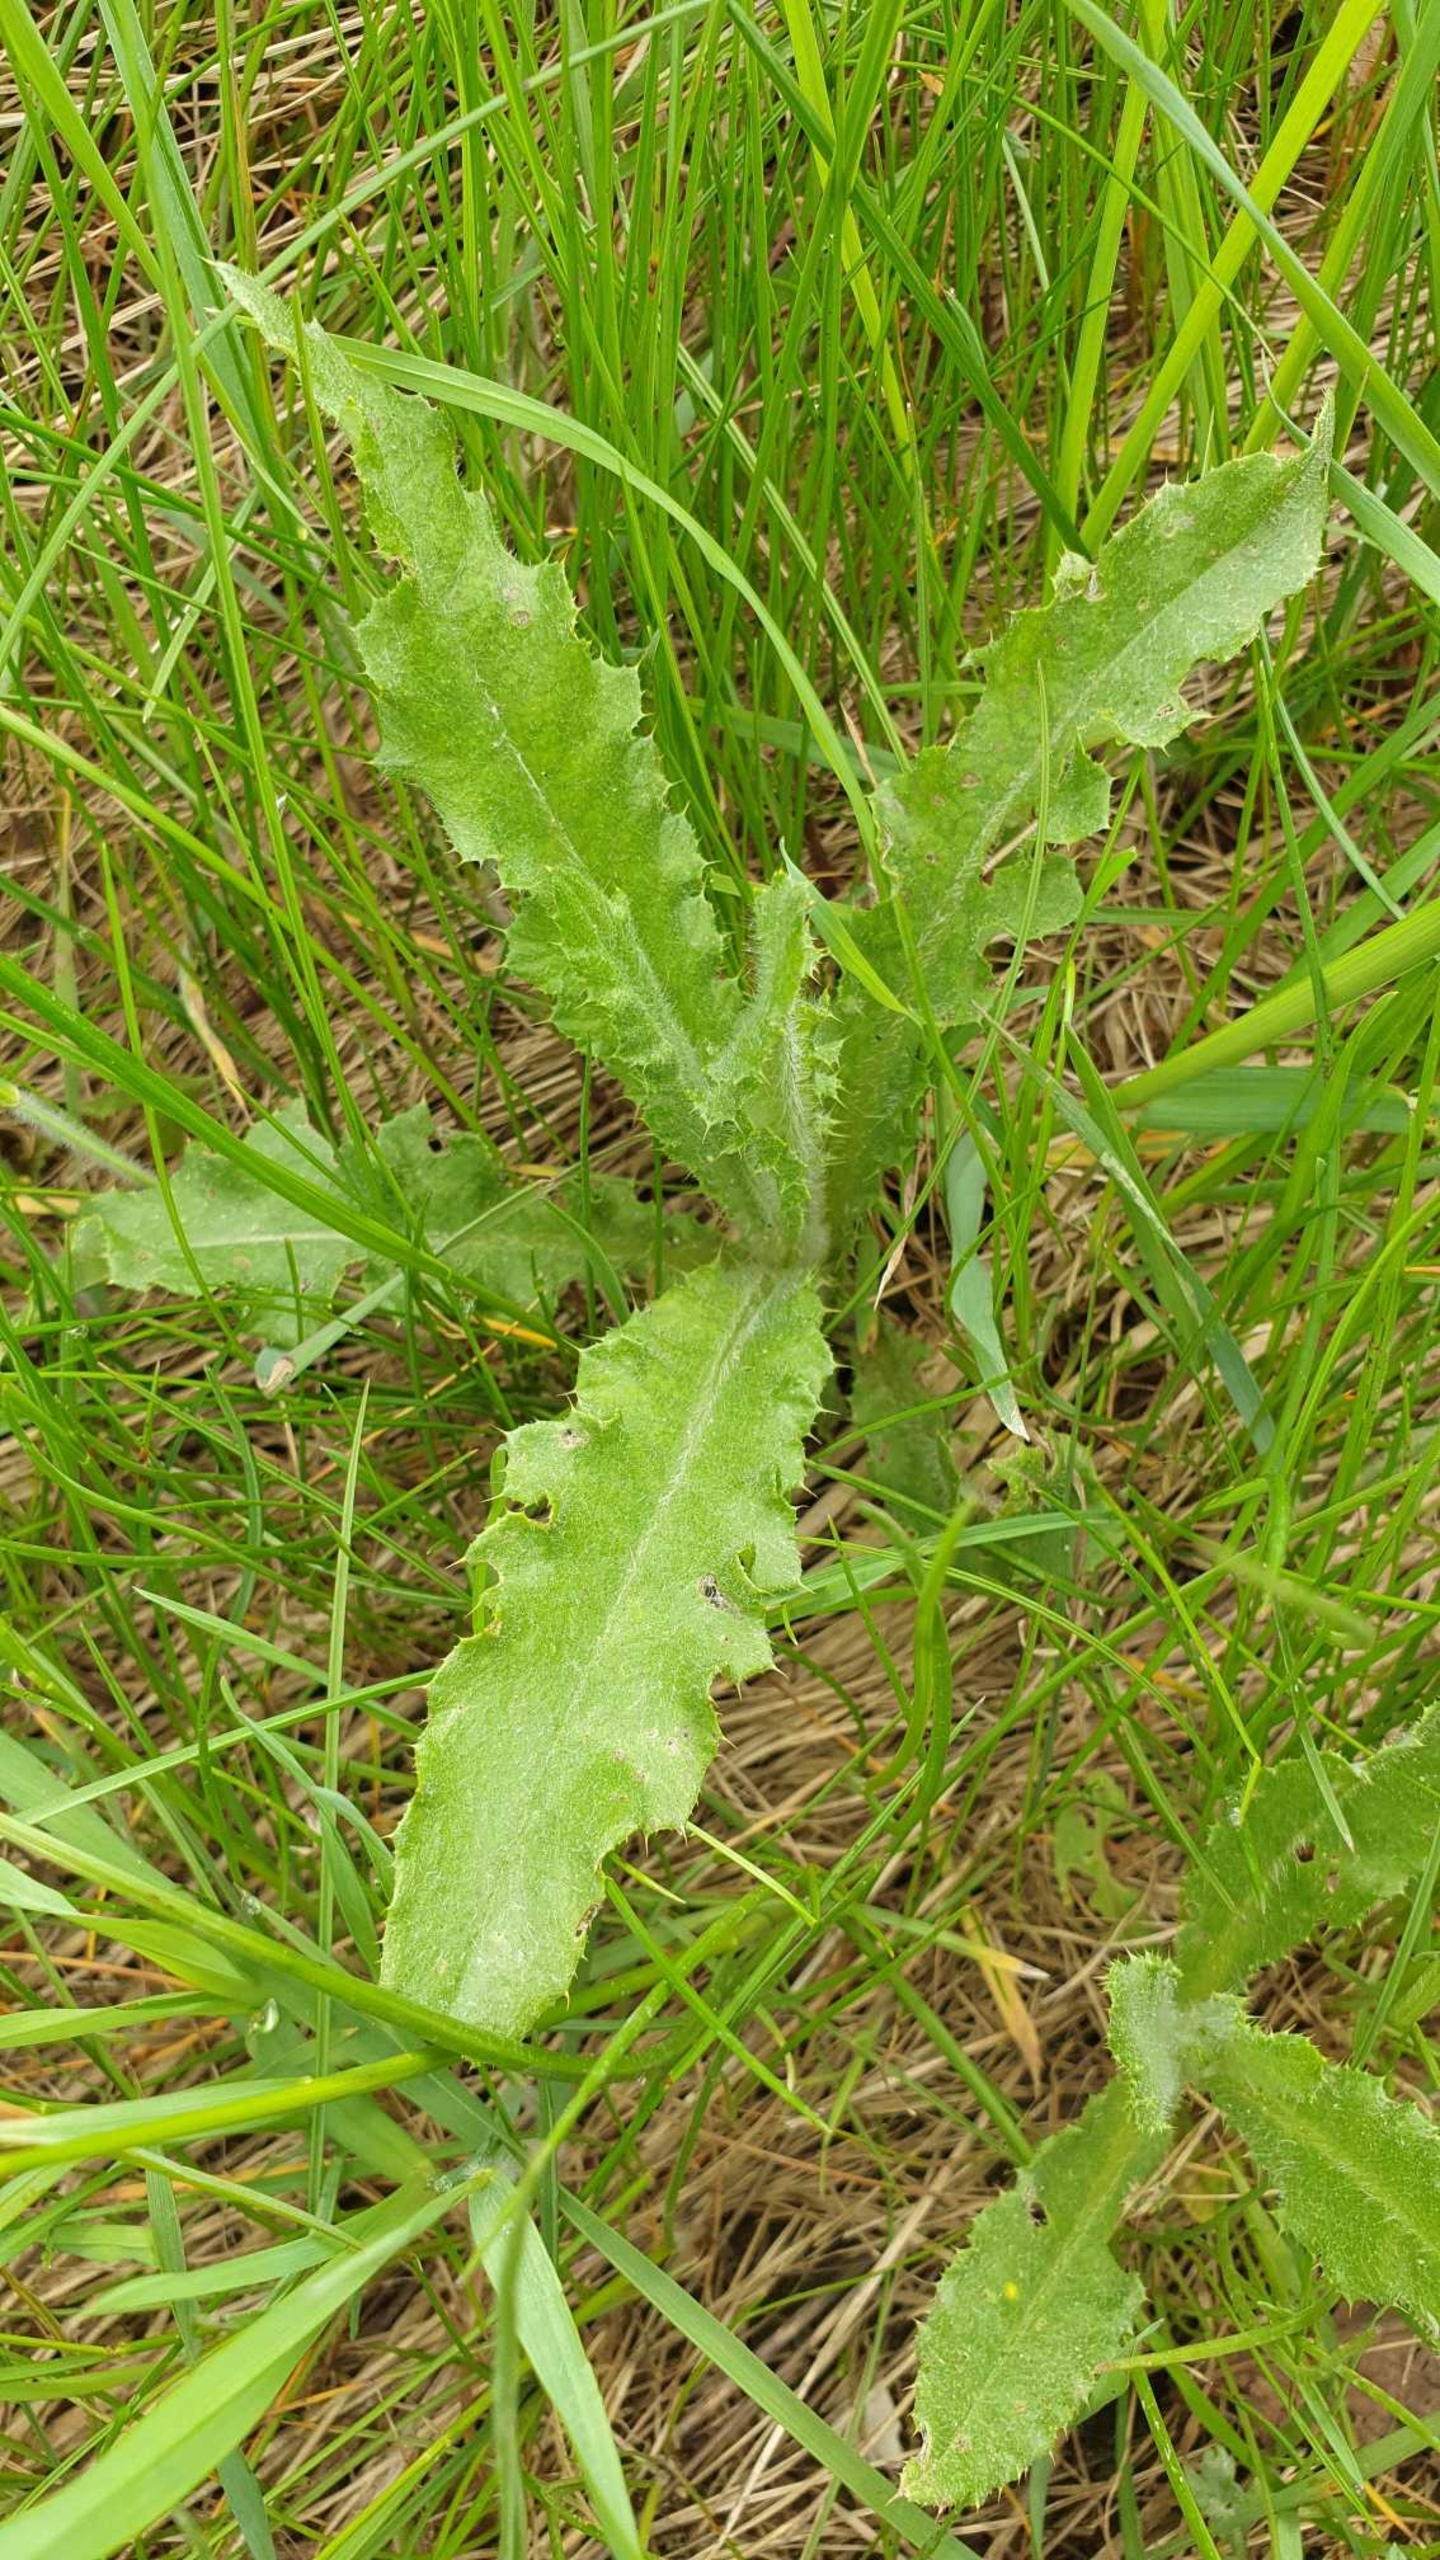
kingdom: Plantae
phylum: Tracheophyta
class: Magnoliopsida
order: Asterales
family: Asteraceae
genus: Cirsium
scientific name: Cirsium arvense
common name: Ager-tidsel
